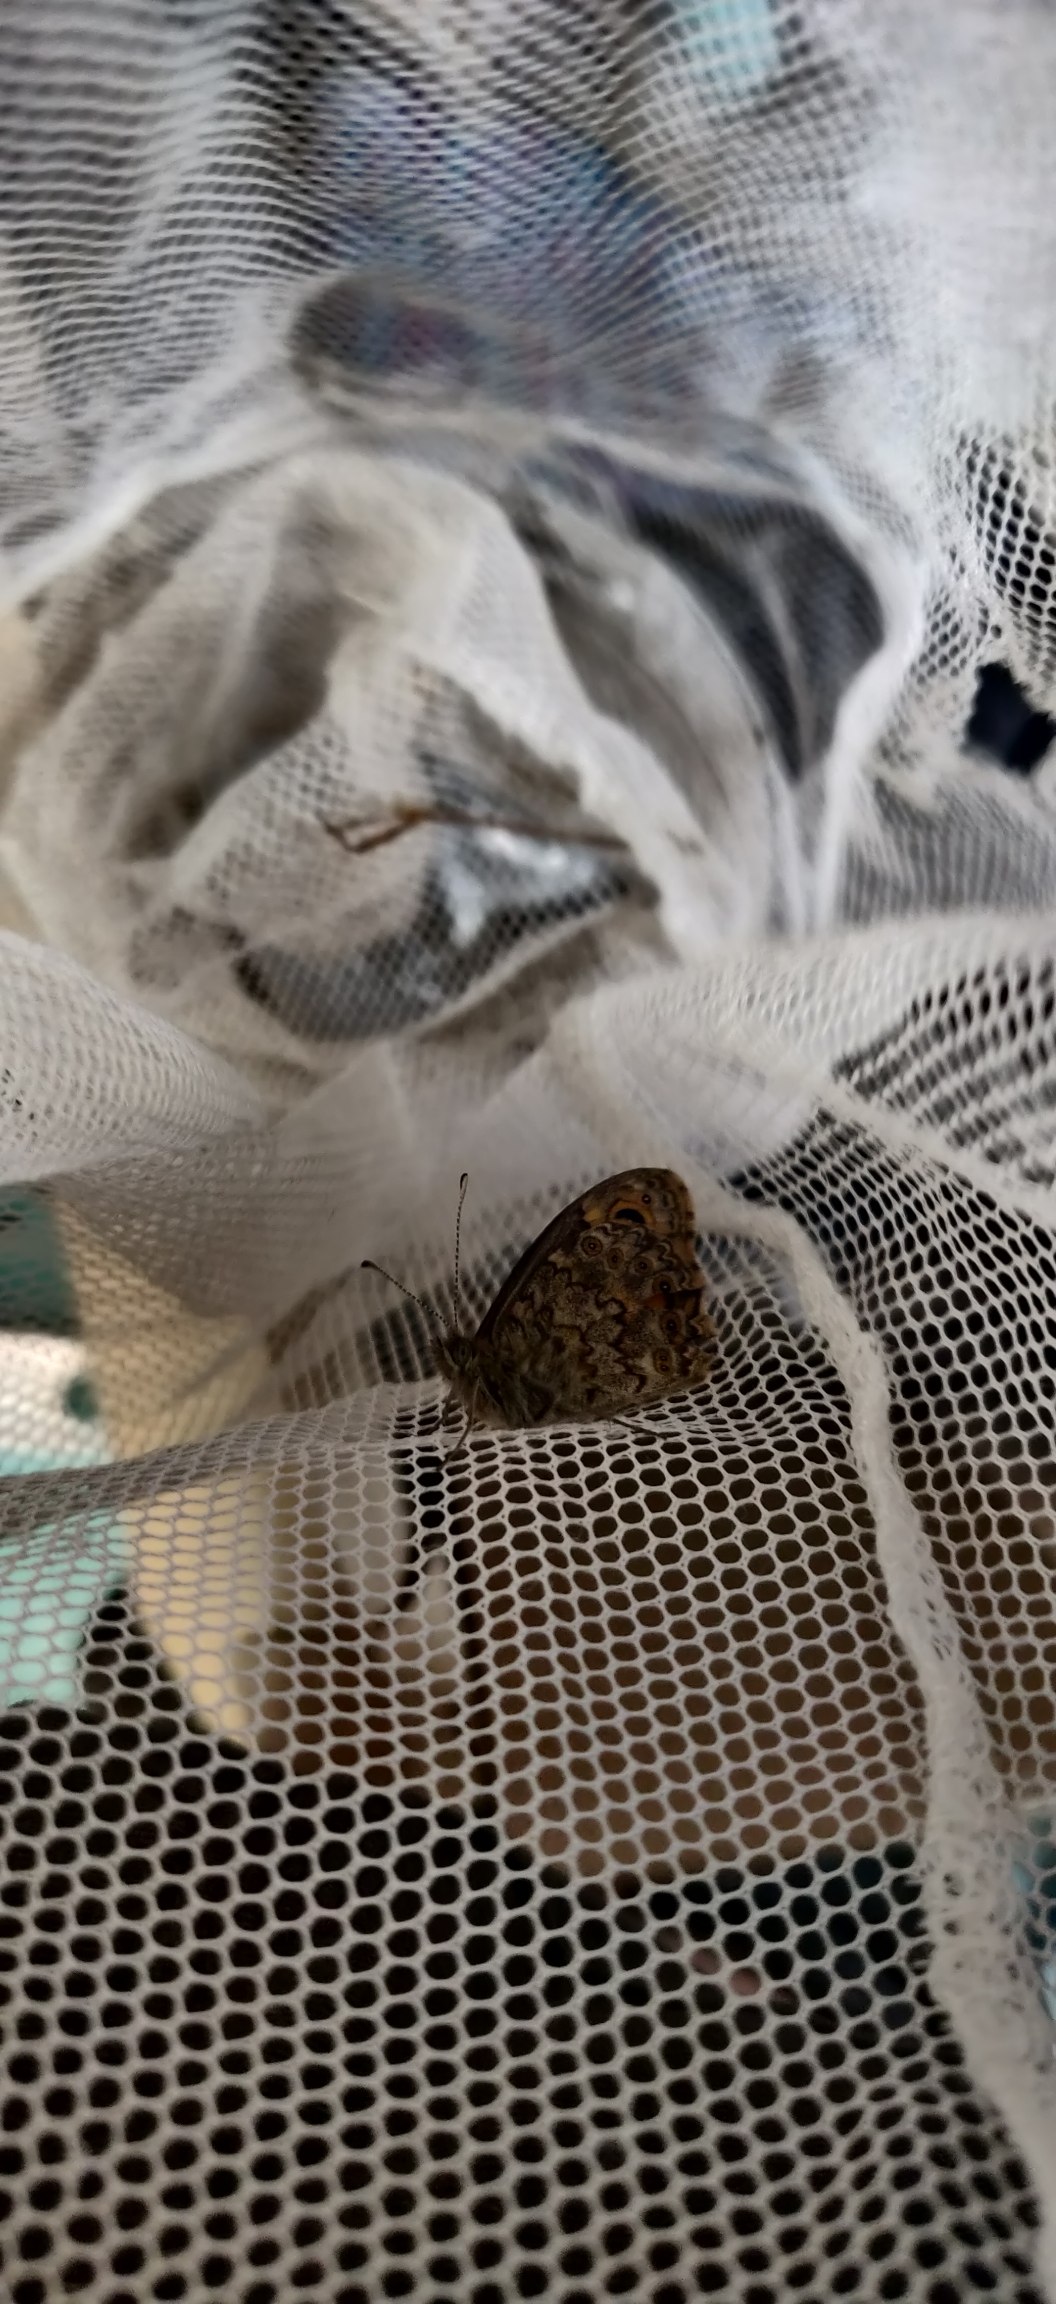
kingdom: Animalia
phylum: Arthropoda
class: Insecta
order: Lepidoptera
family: Nymphalidae
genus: Pararge
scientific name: Pararge Lasiommata megera
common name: Vejrandøje
